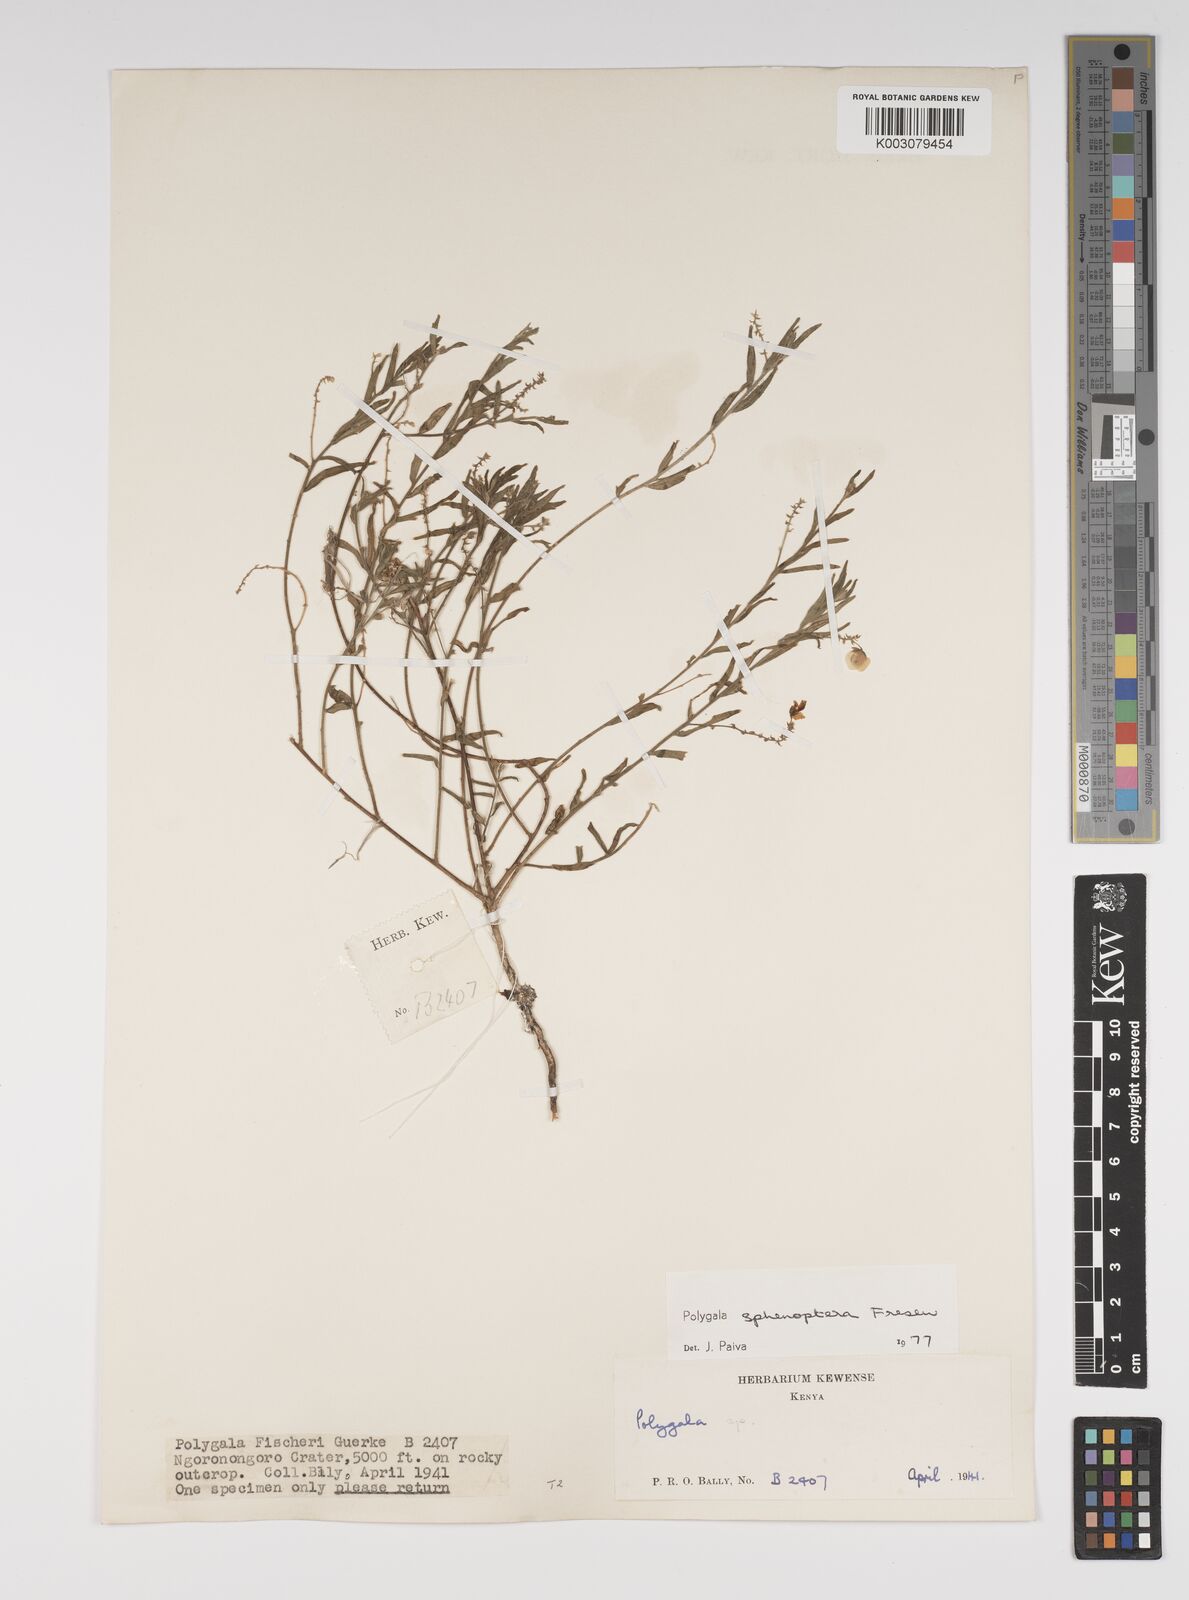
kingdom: Plantae
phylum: Tracheophyta
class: Magnoliopsida
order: Fabales
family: Polygalaceae
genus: Polygala
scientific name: Polygala sphenoptera
